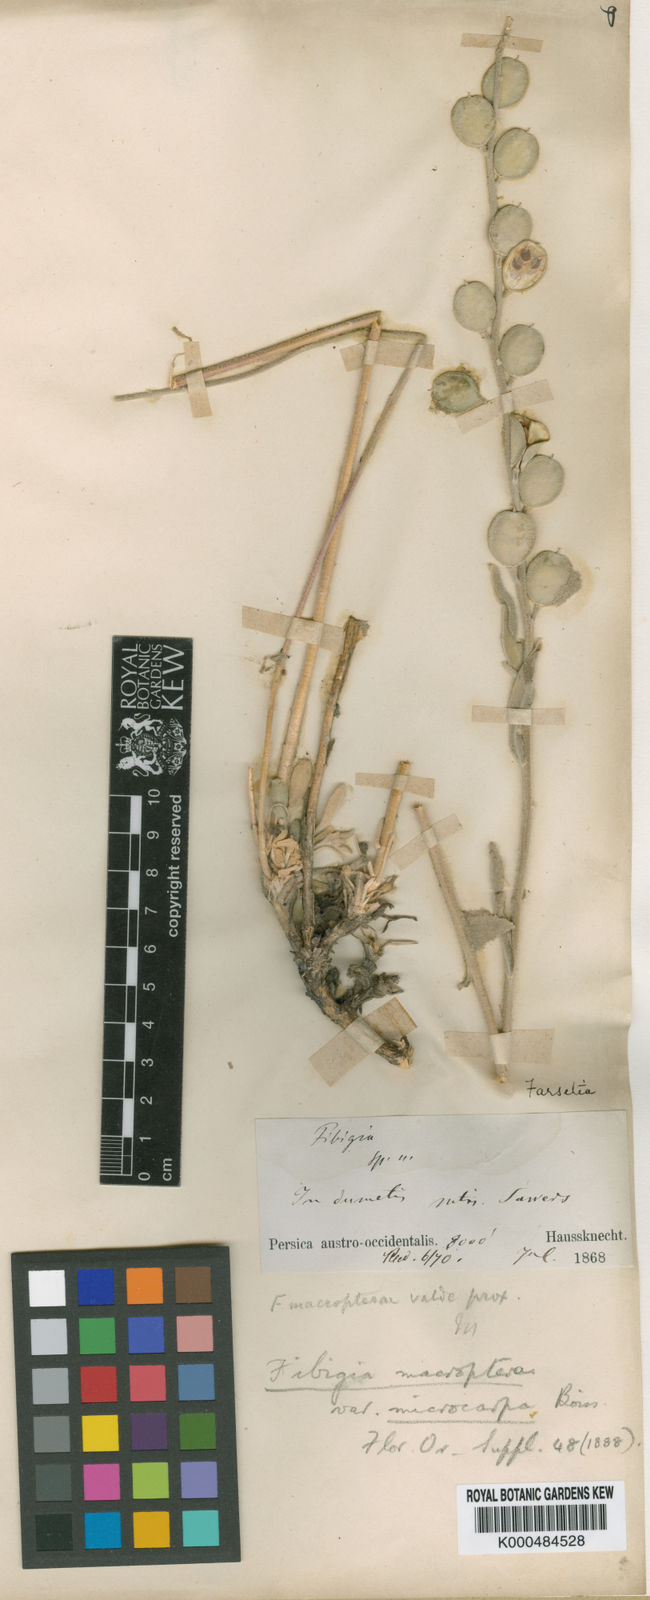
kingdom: Plantae
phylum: Tracheophyta
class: Magnoliopsida
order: Brassicales
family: Brassicaceae
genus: Fibigia
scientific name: Fibigia macrocarpa
